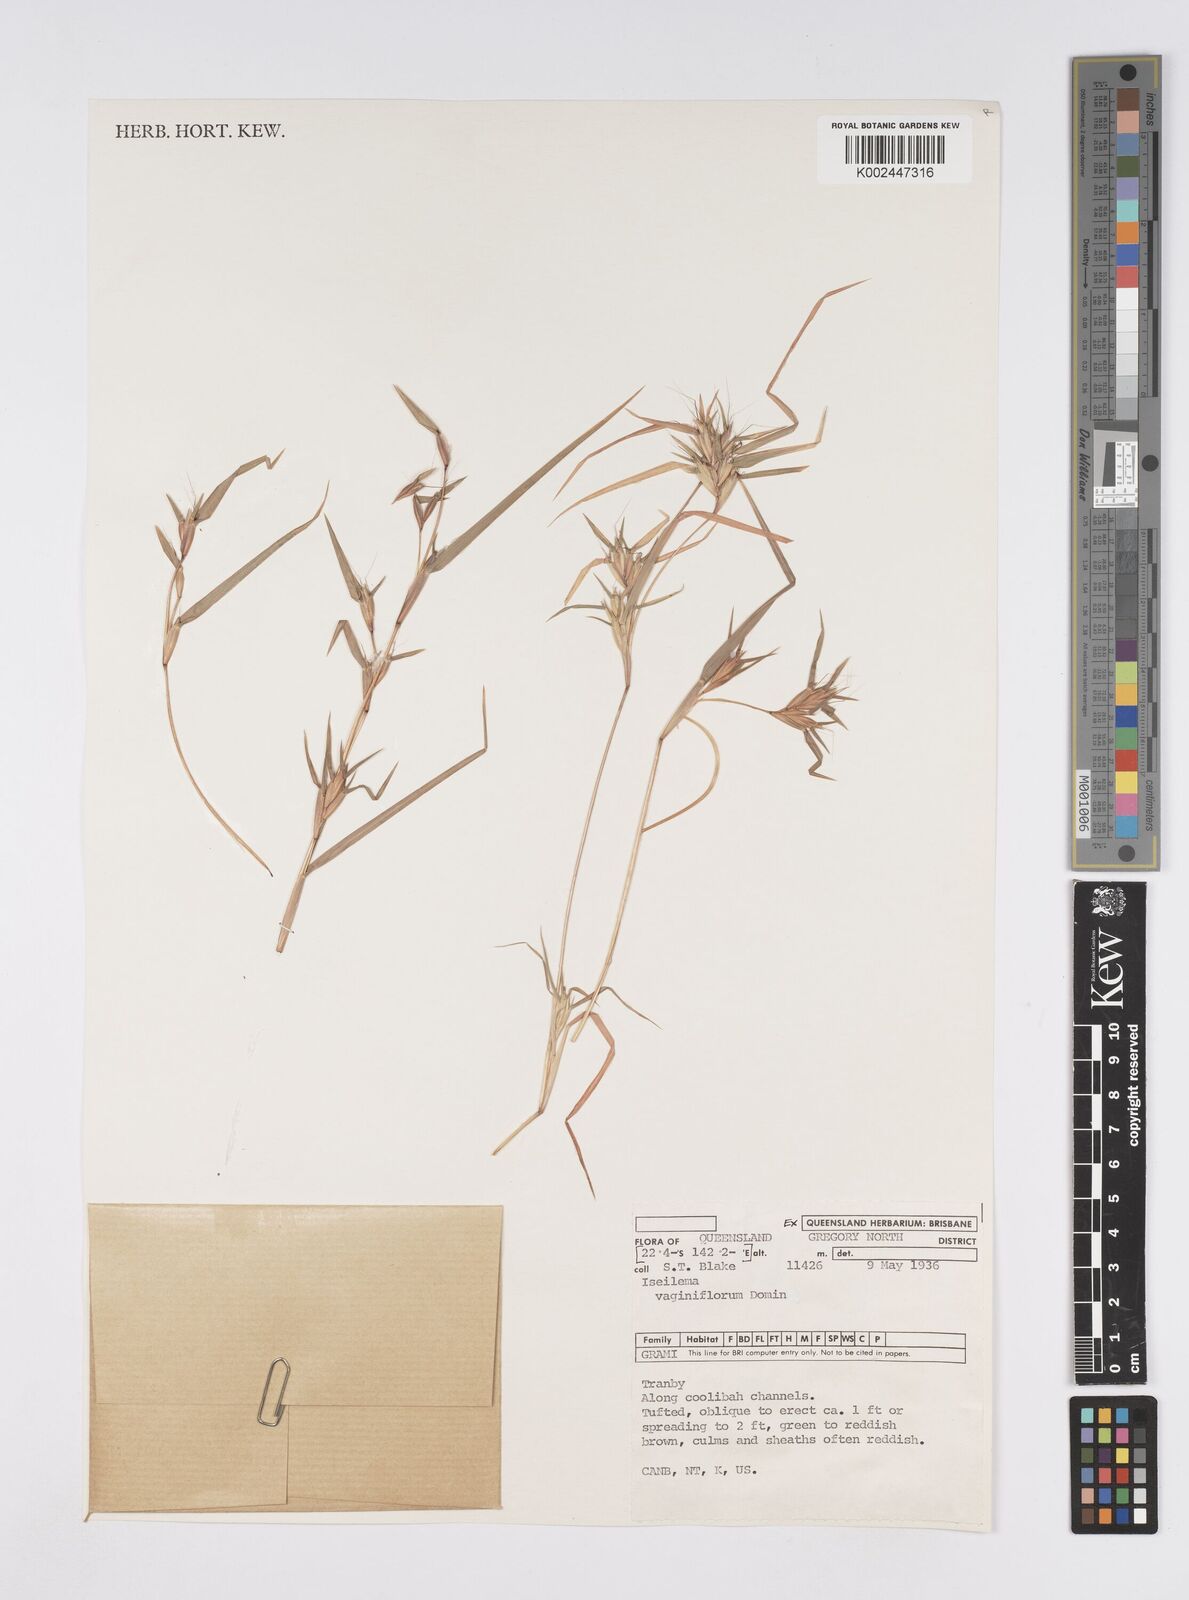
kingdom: Plantae
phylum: Tracheophyta
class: Liliopsida
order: Poales
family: Poaceae
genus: Iseilema
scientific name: Iseilema vaginiflorum
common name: Red flinders grass
